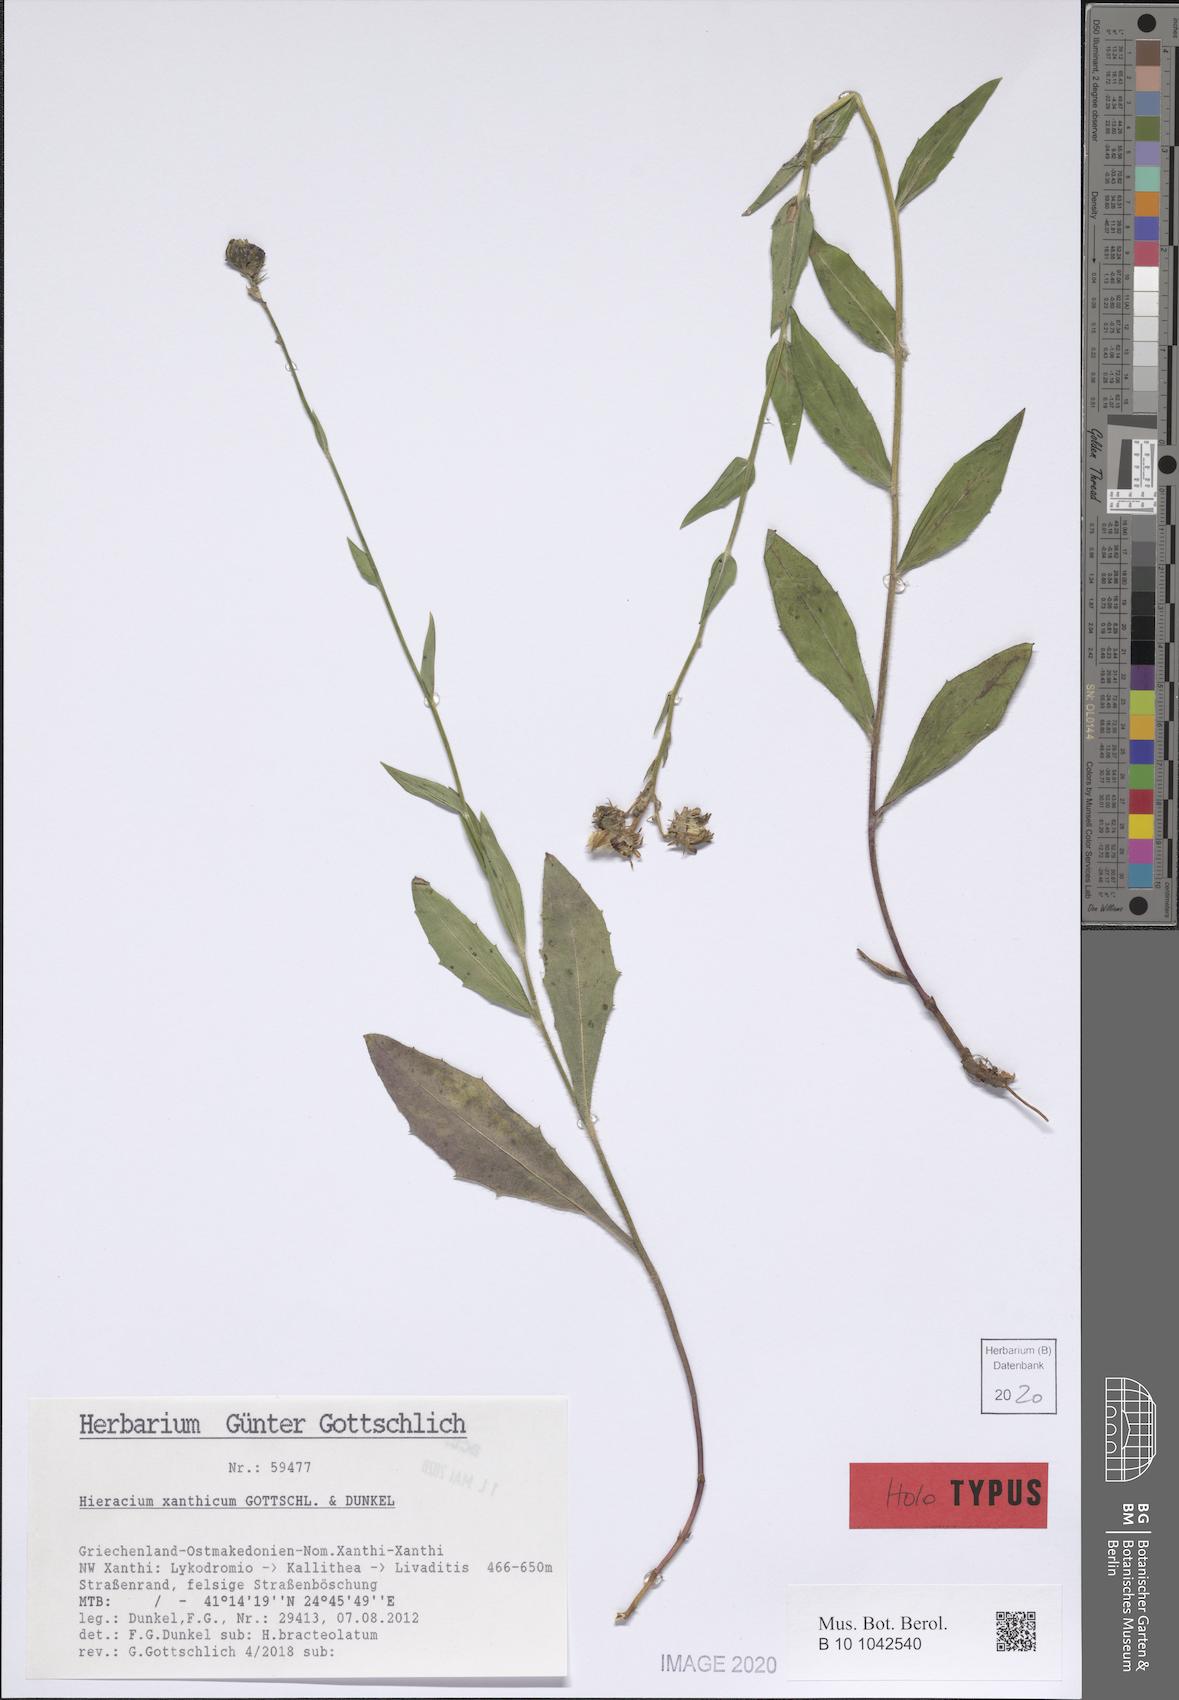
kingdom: Plantae
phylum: Tracheophyta
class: Magnoliopsida
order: Asterales
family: Asteraceae
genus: Hieracium
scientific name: Hieracium xanthicum
